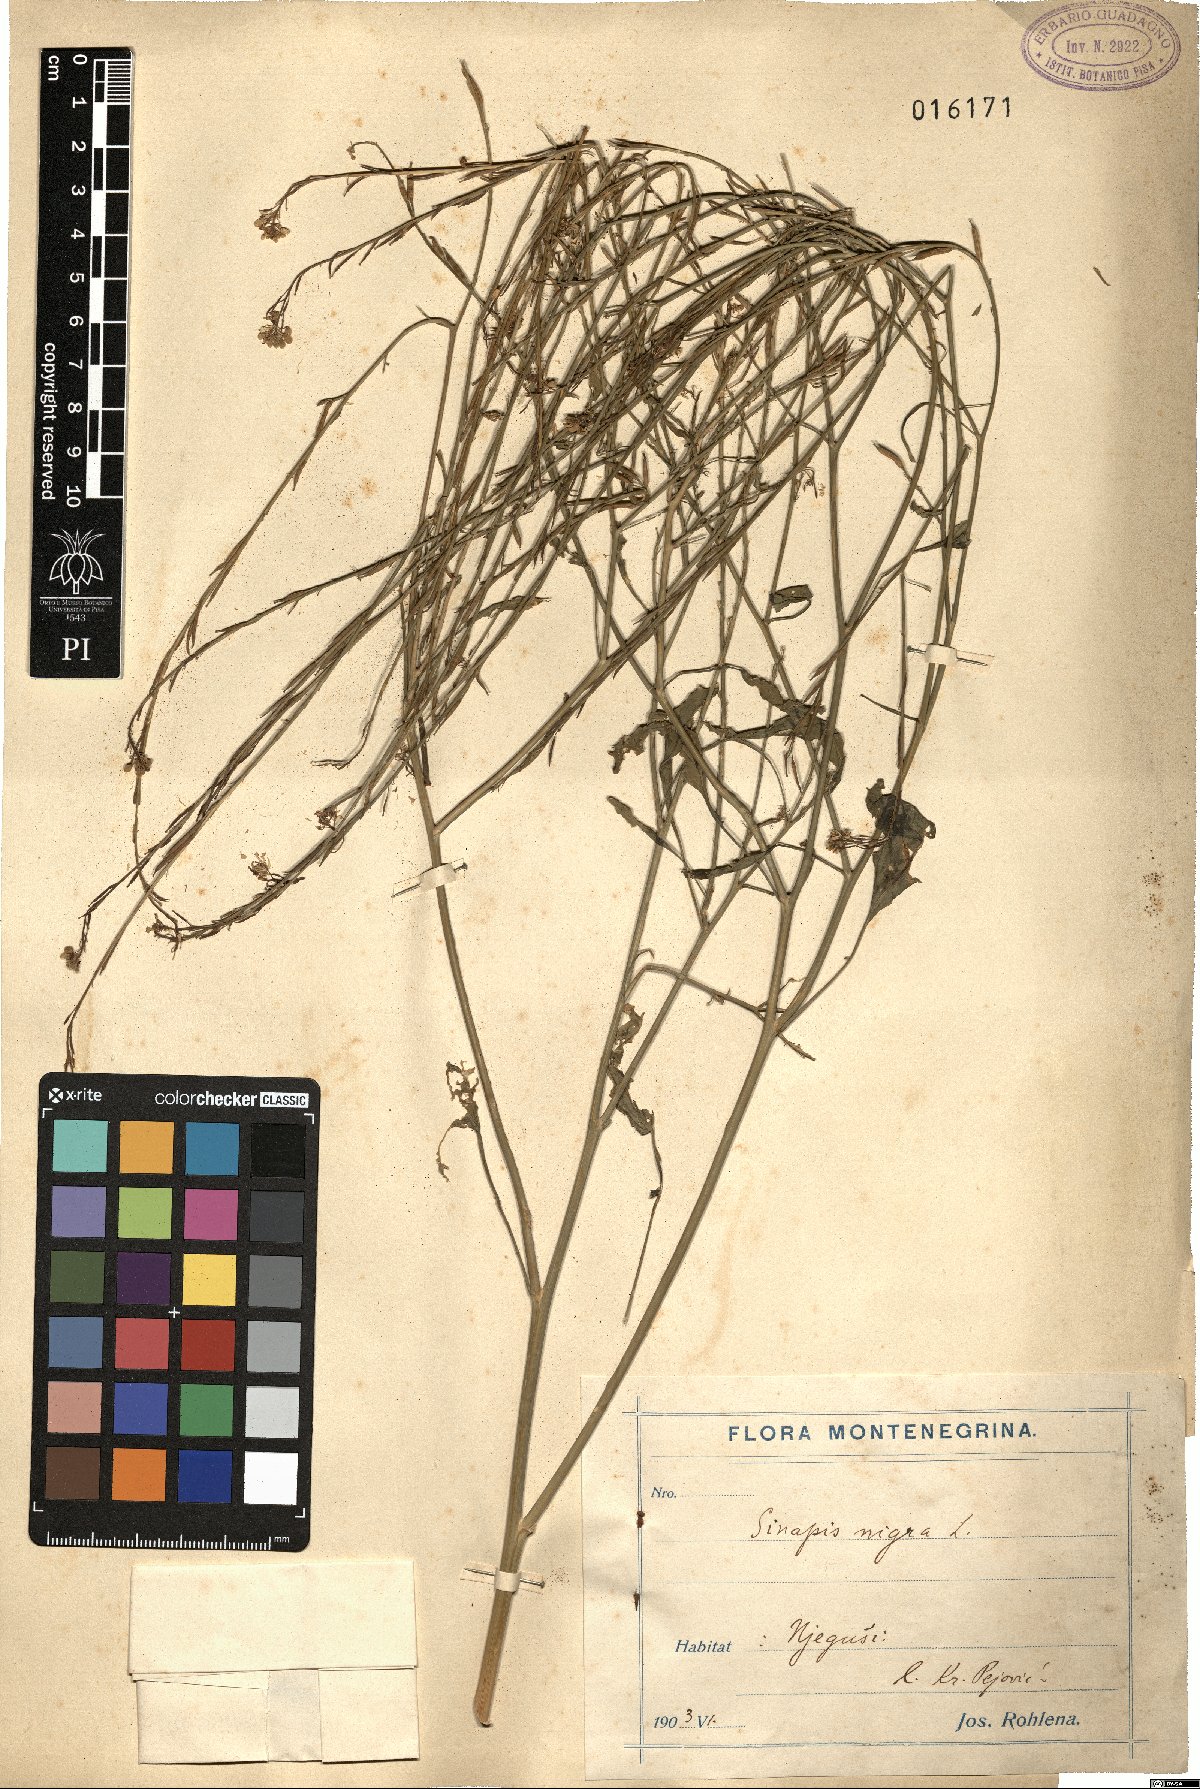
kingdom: Plantae
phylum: Tracheophyta
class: Magnoliopsida
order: Brassicales
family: Brassicaceae
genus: Brassica
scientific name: Brassica nigra
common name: Black mustard
